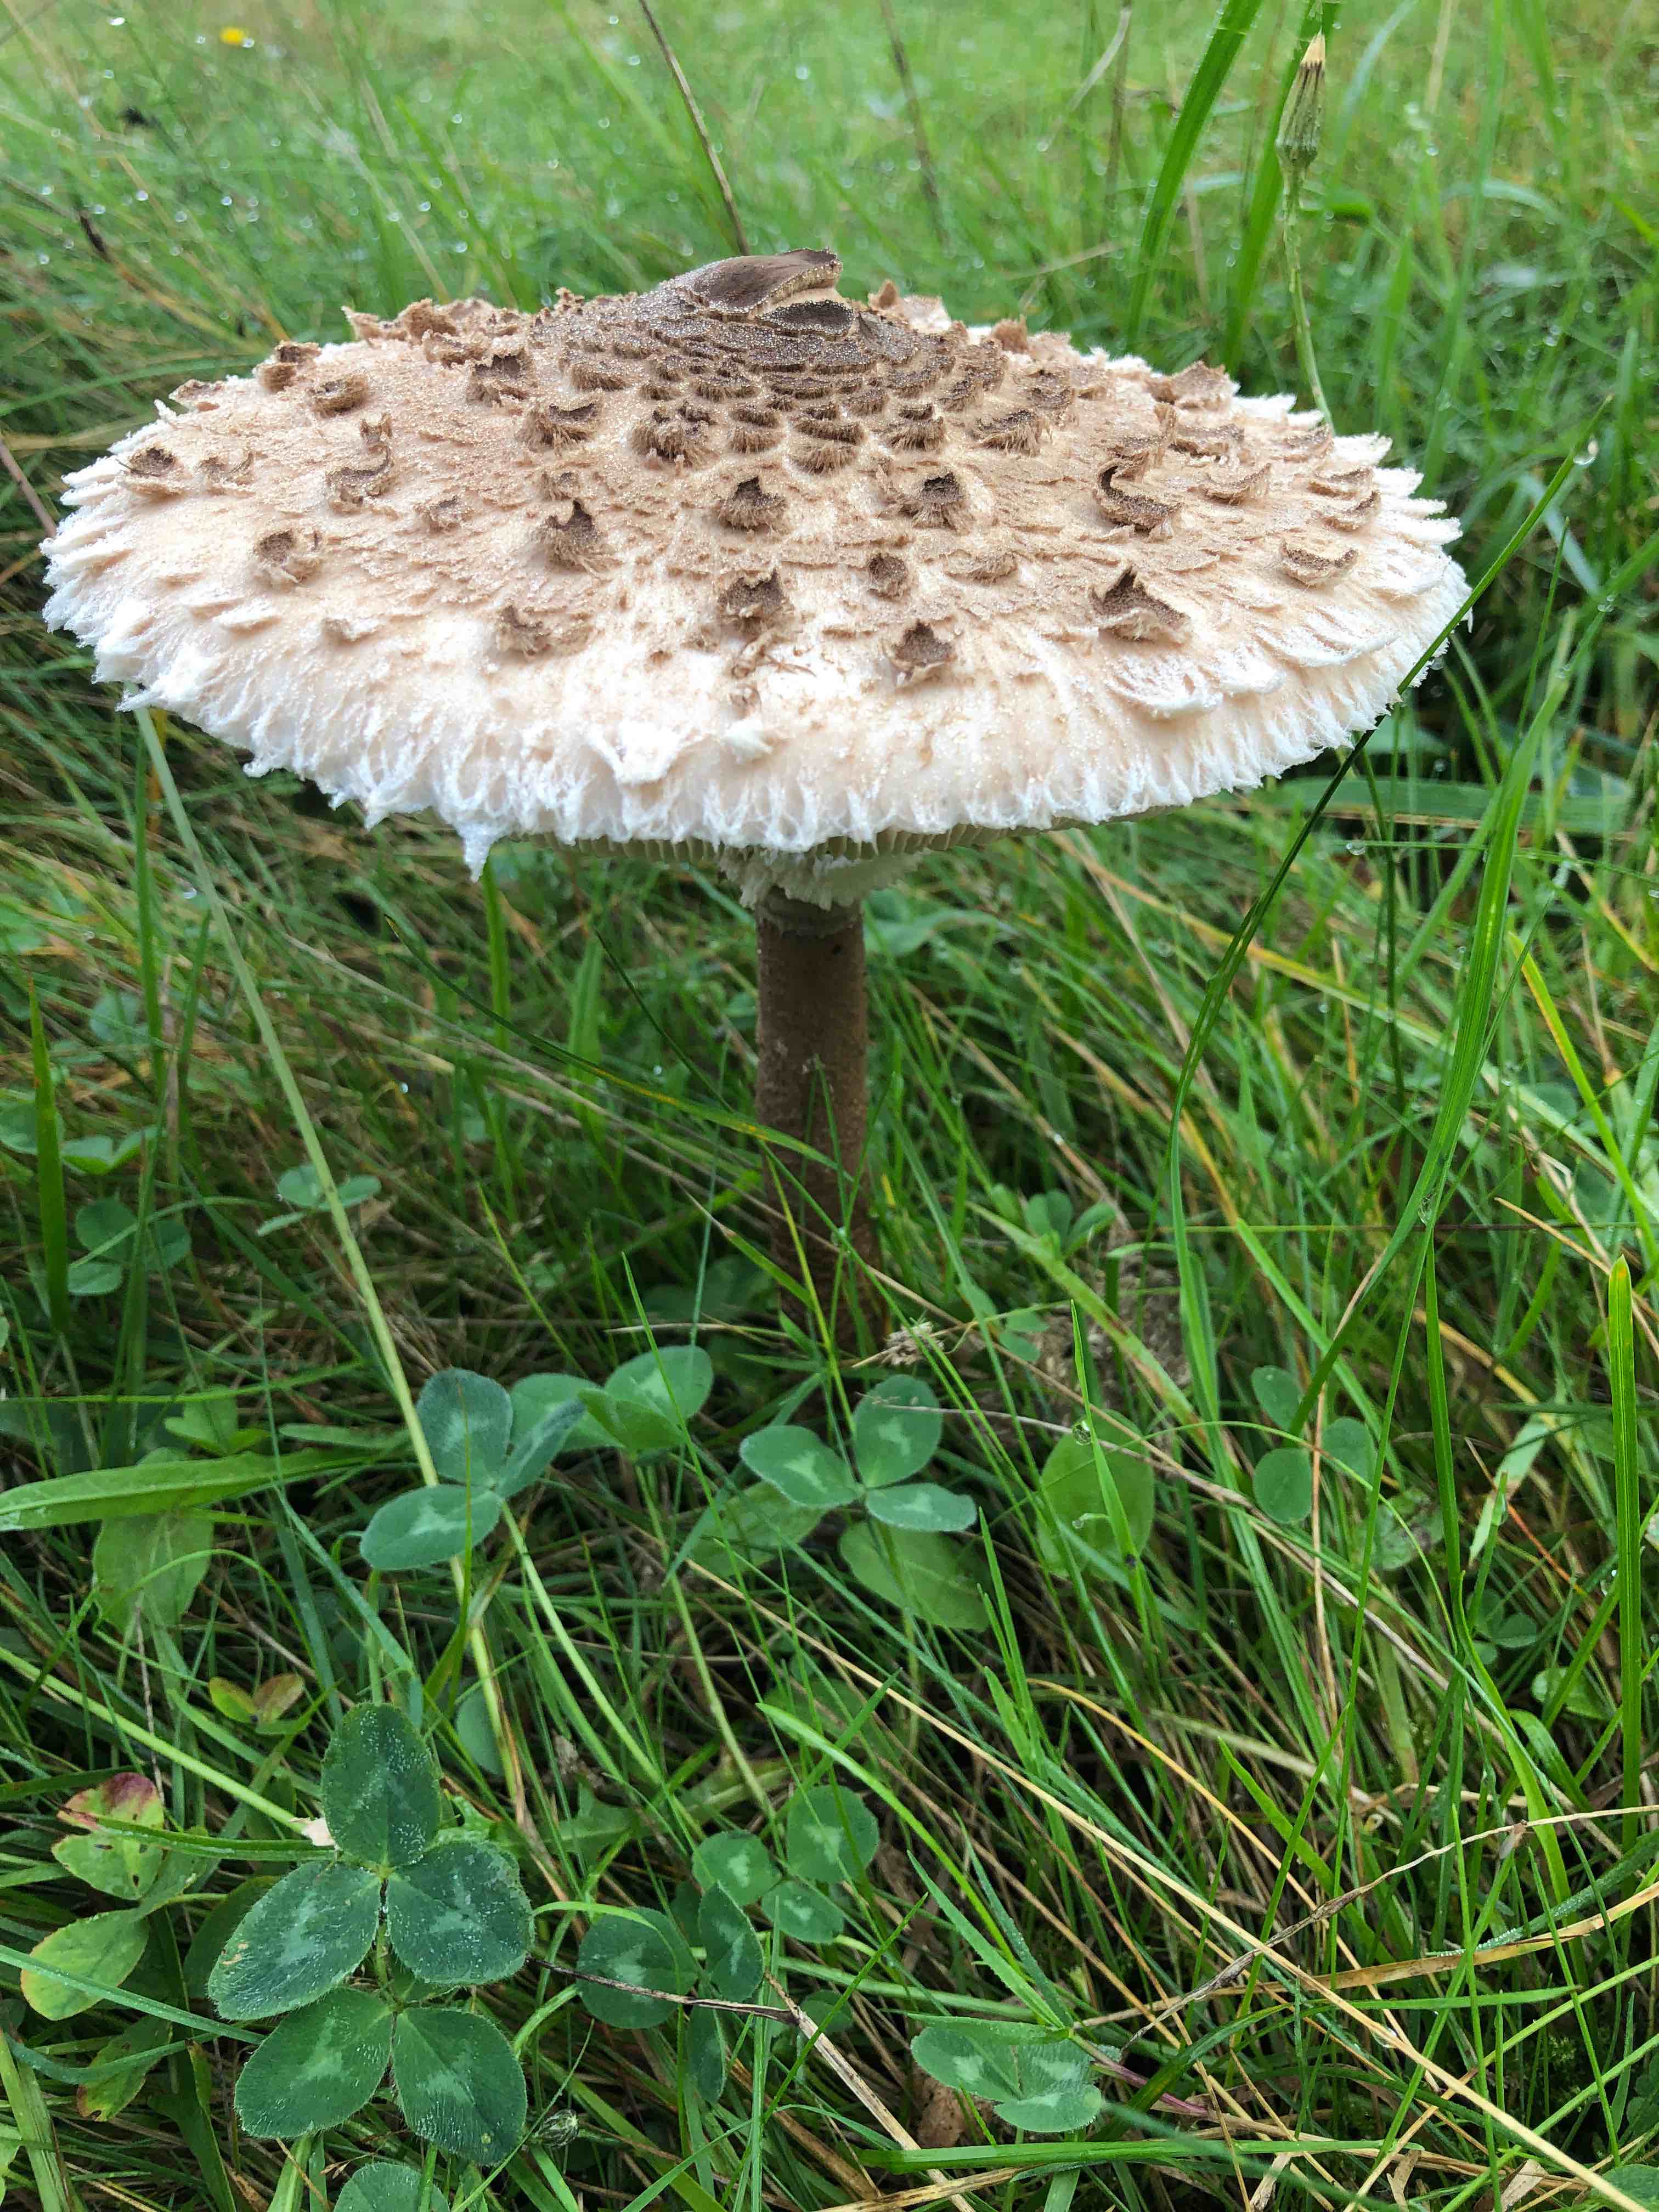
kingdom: Fungi
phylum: Basidiomycota
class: Agaricomycetes
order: Agaricales
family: Agaricaceae
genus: Macrolepiota
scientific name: Macrolepiota procera
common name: stor kæmpeparasolhat
